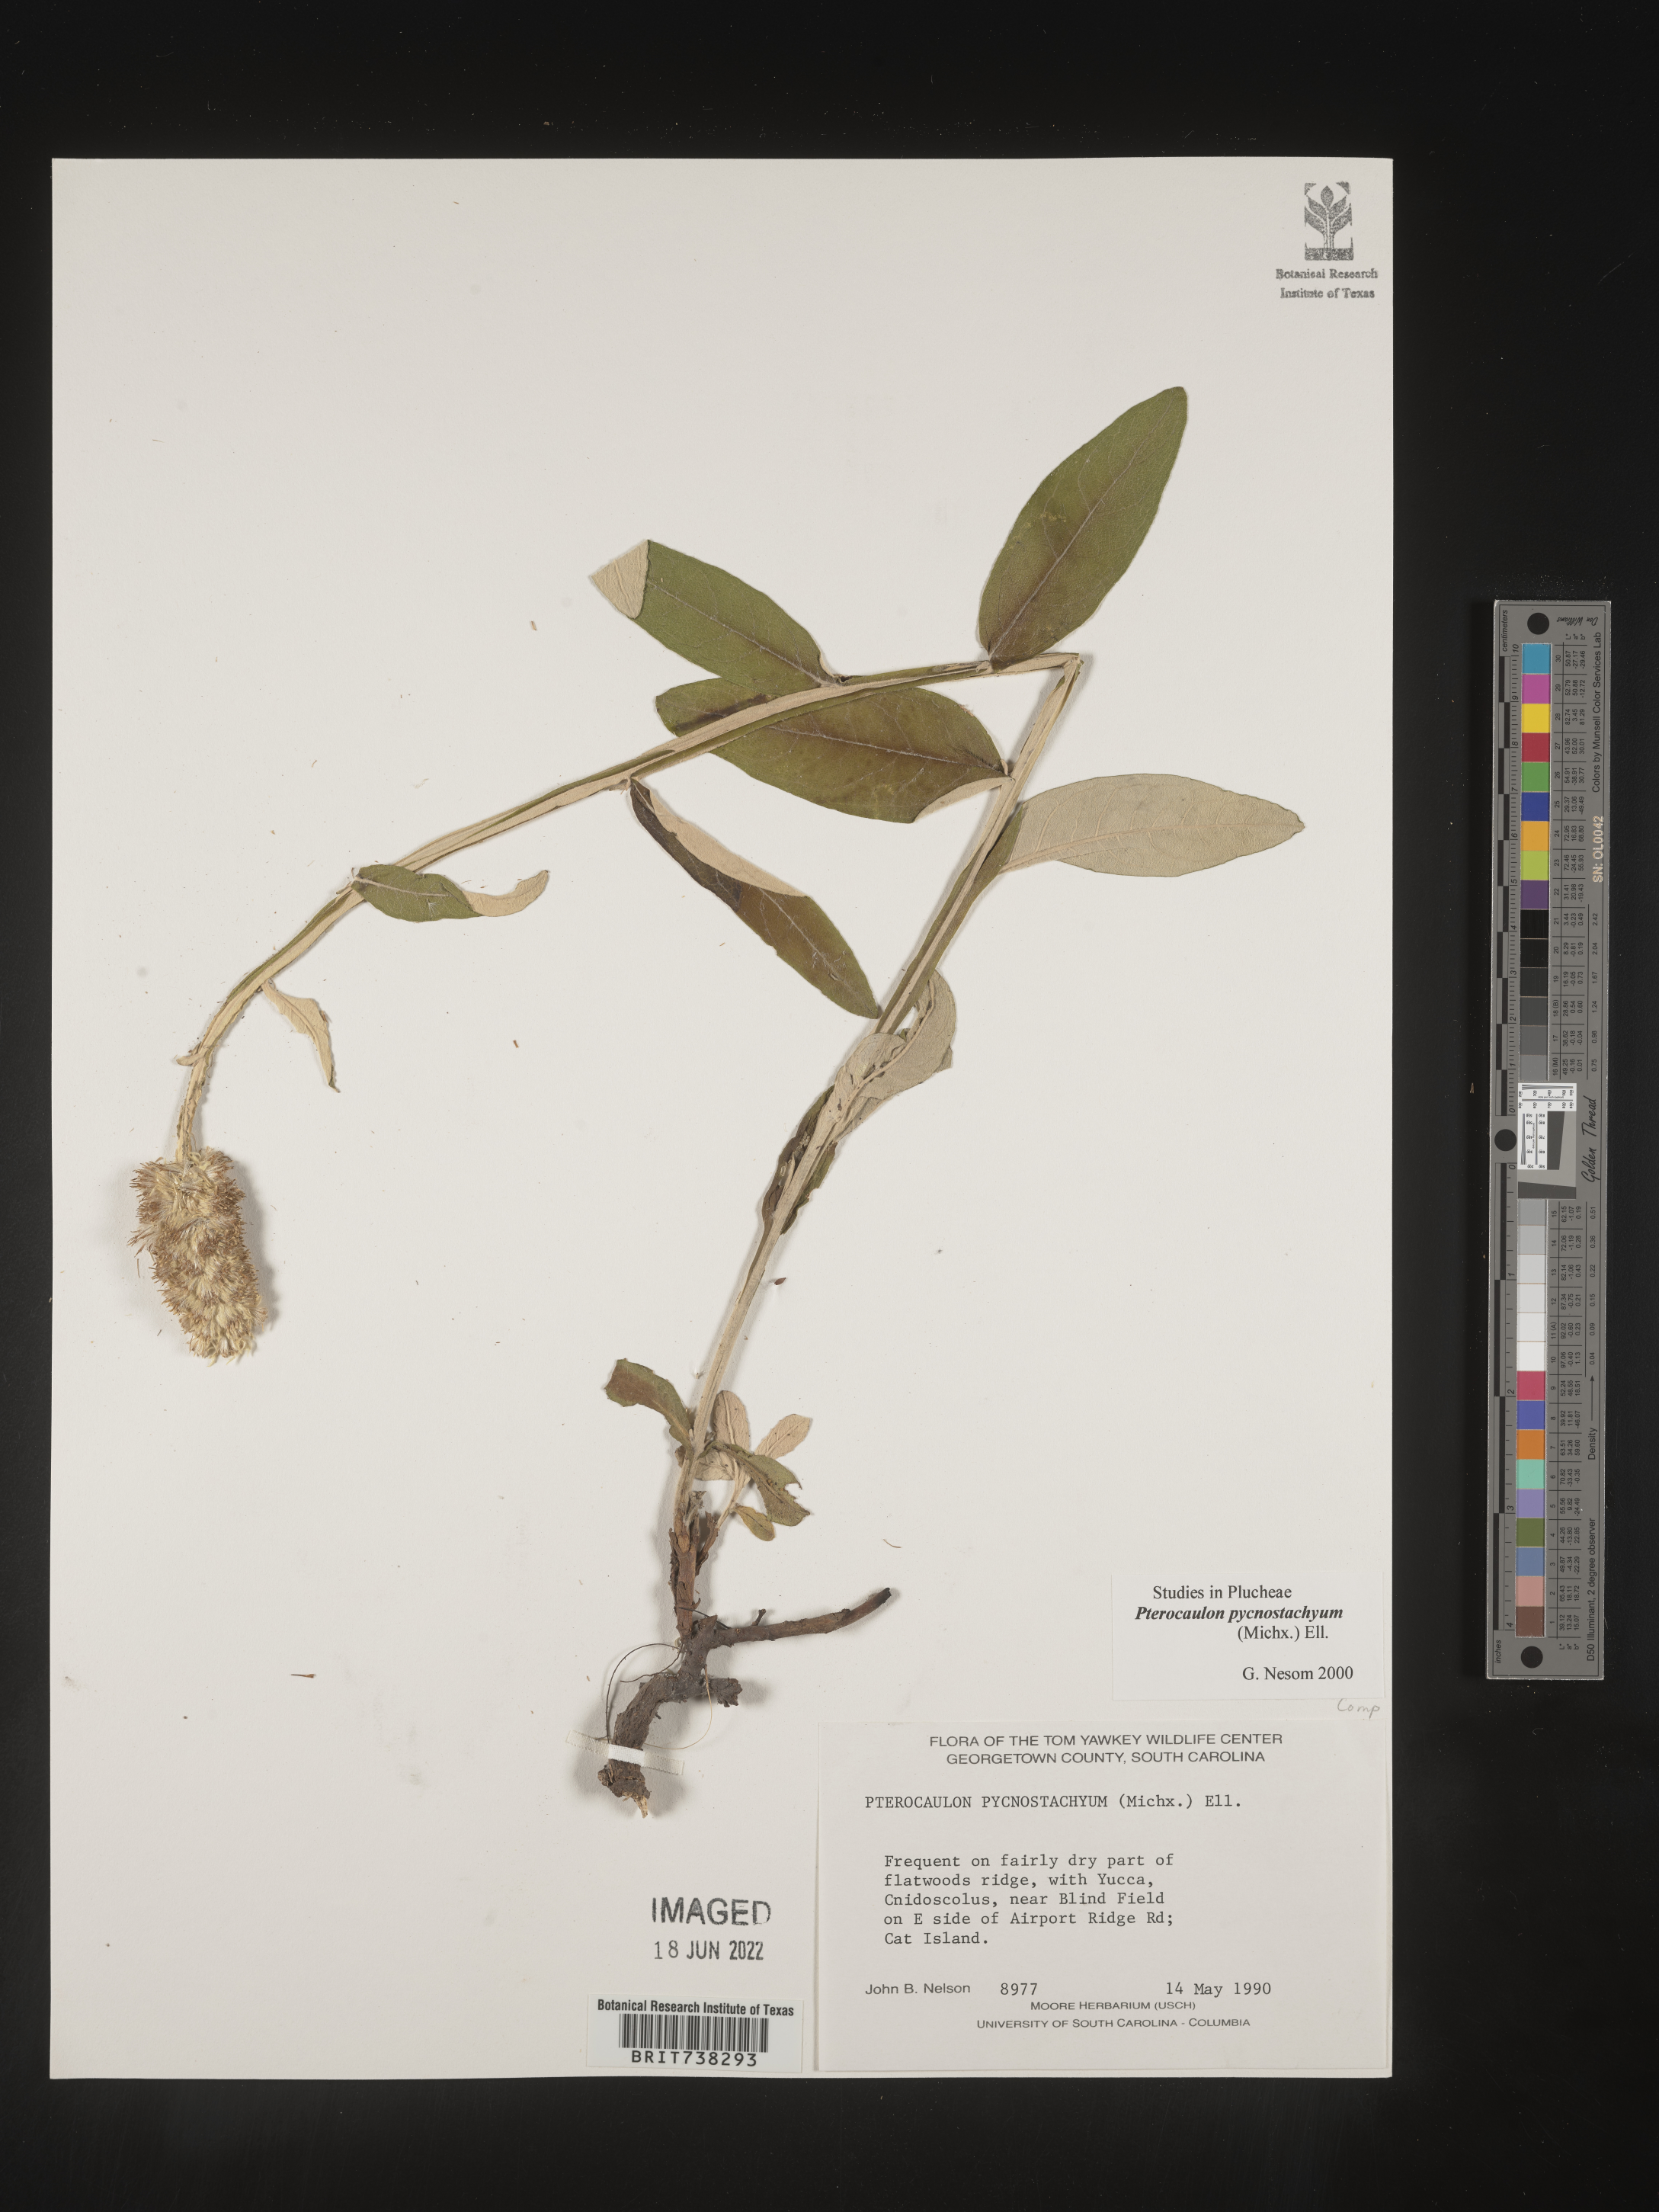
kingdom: Plantae
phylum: Tracheophyta
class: Magnoliopsida
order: Asterales
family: Asteraceae
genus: Pterocaulon
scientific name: Pterocaulon pycnostachyum
